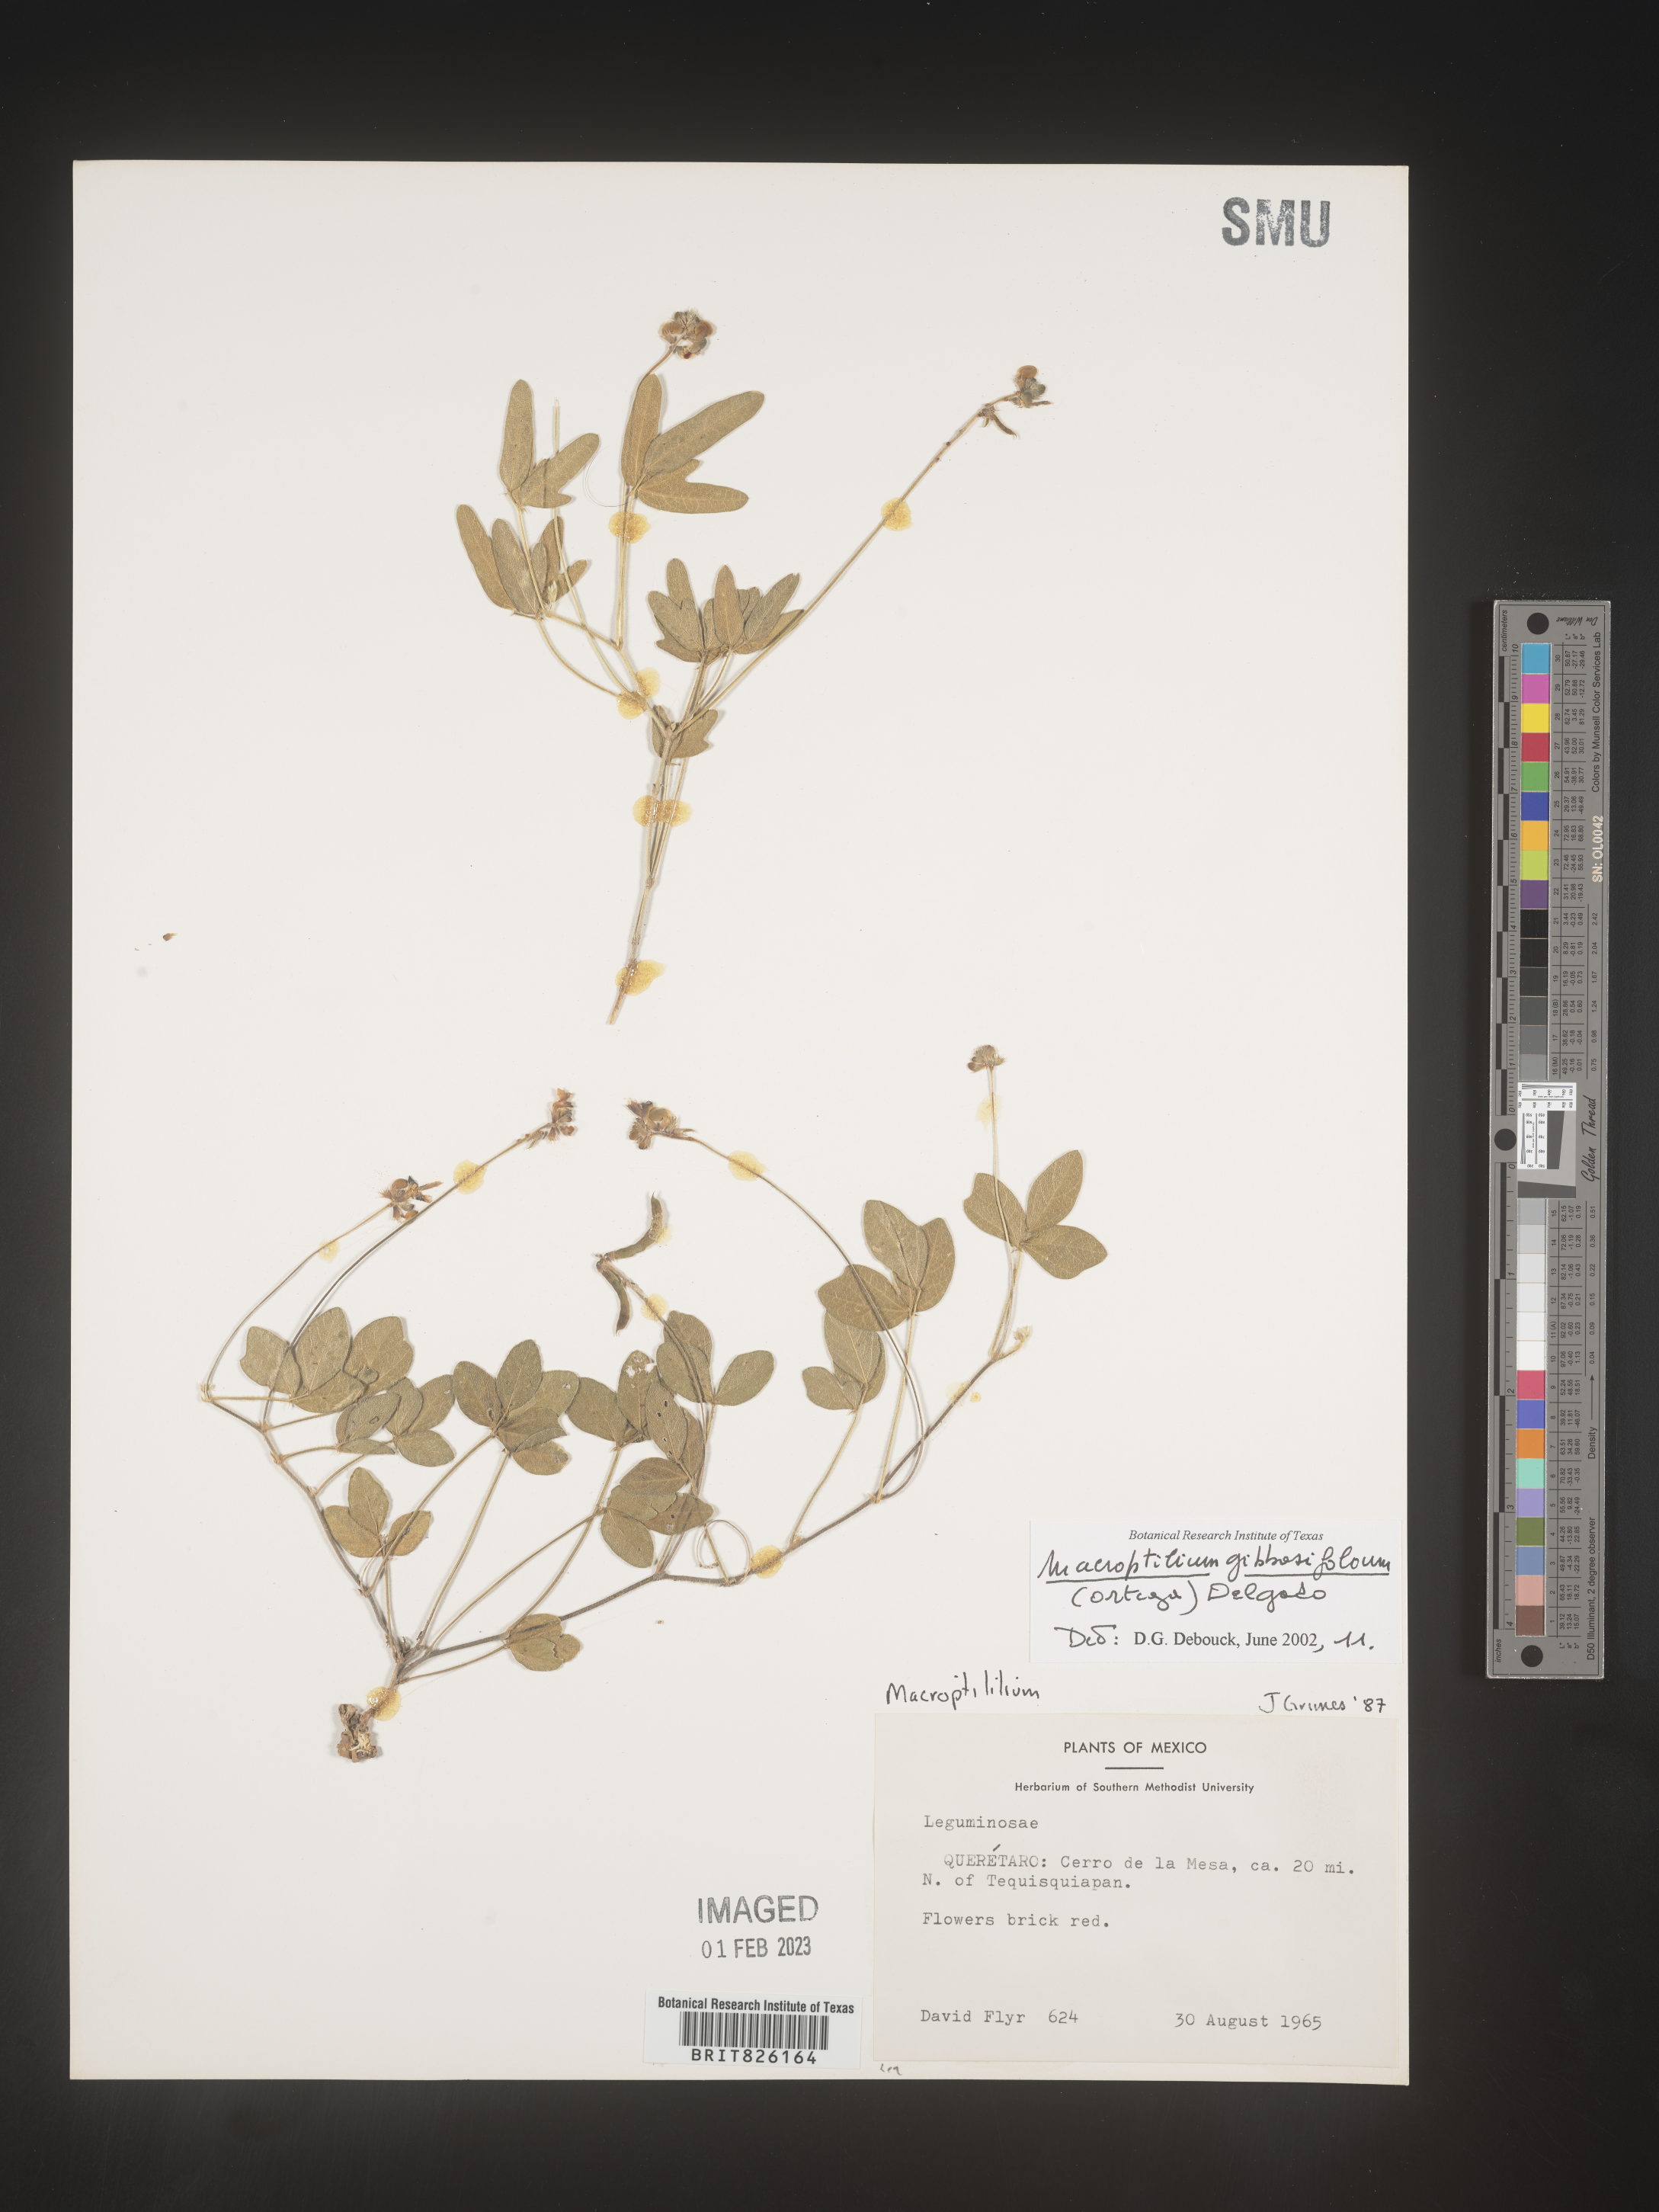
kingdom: Plantae
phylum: Tracheophyta
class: Magnoliopsida
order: Fabales
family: Fabaceae
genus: Macroptilium
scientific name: Macroptilium
